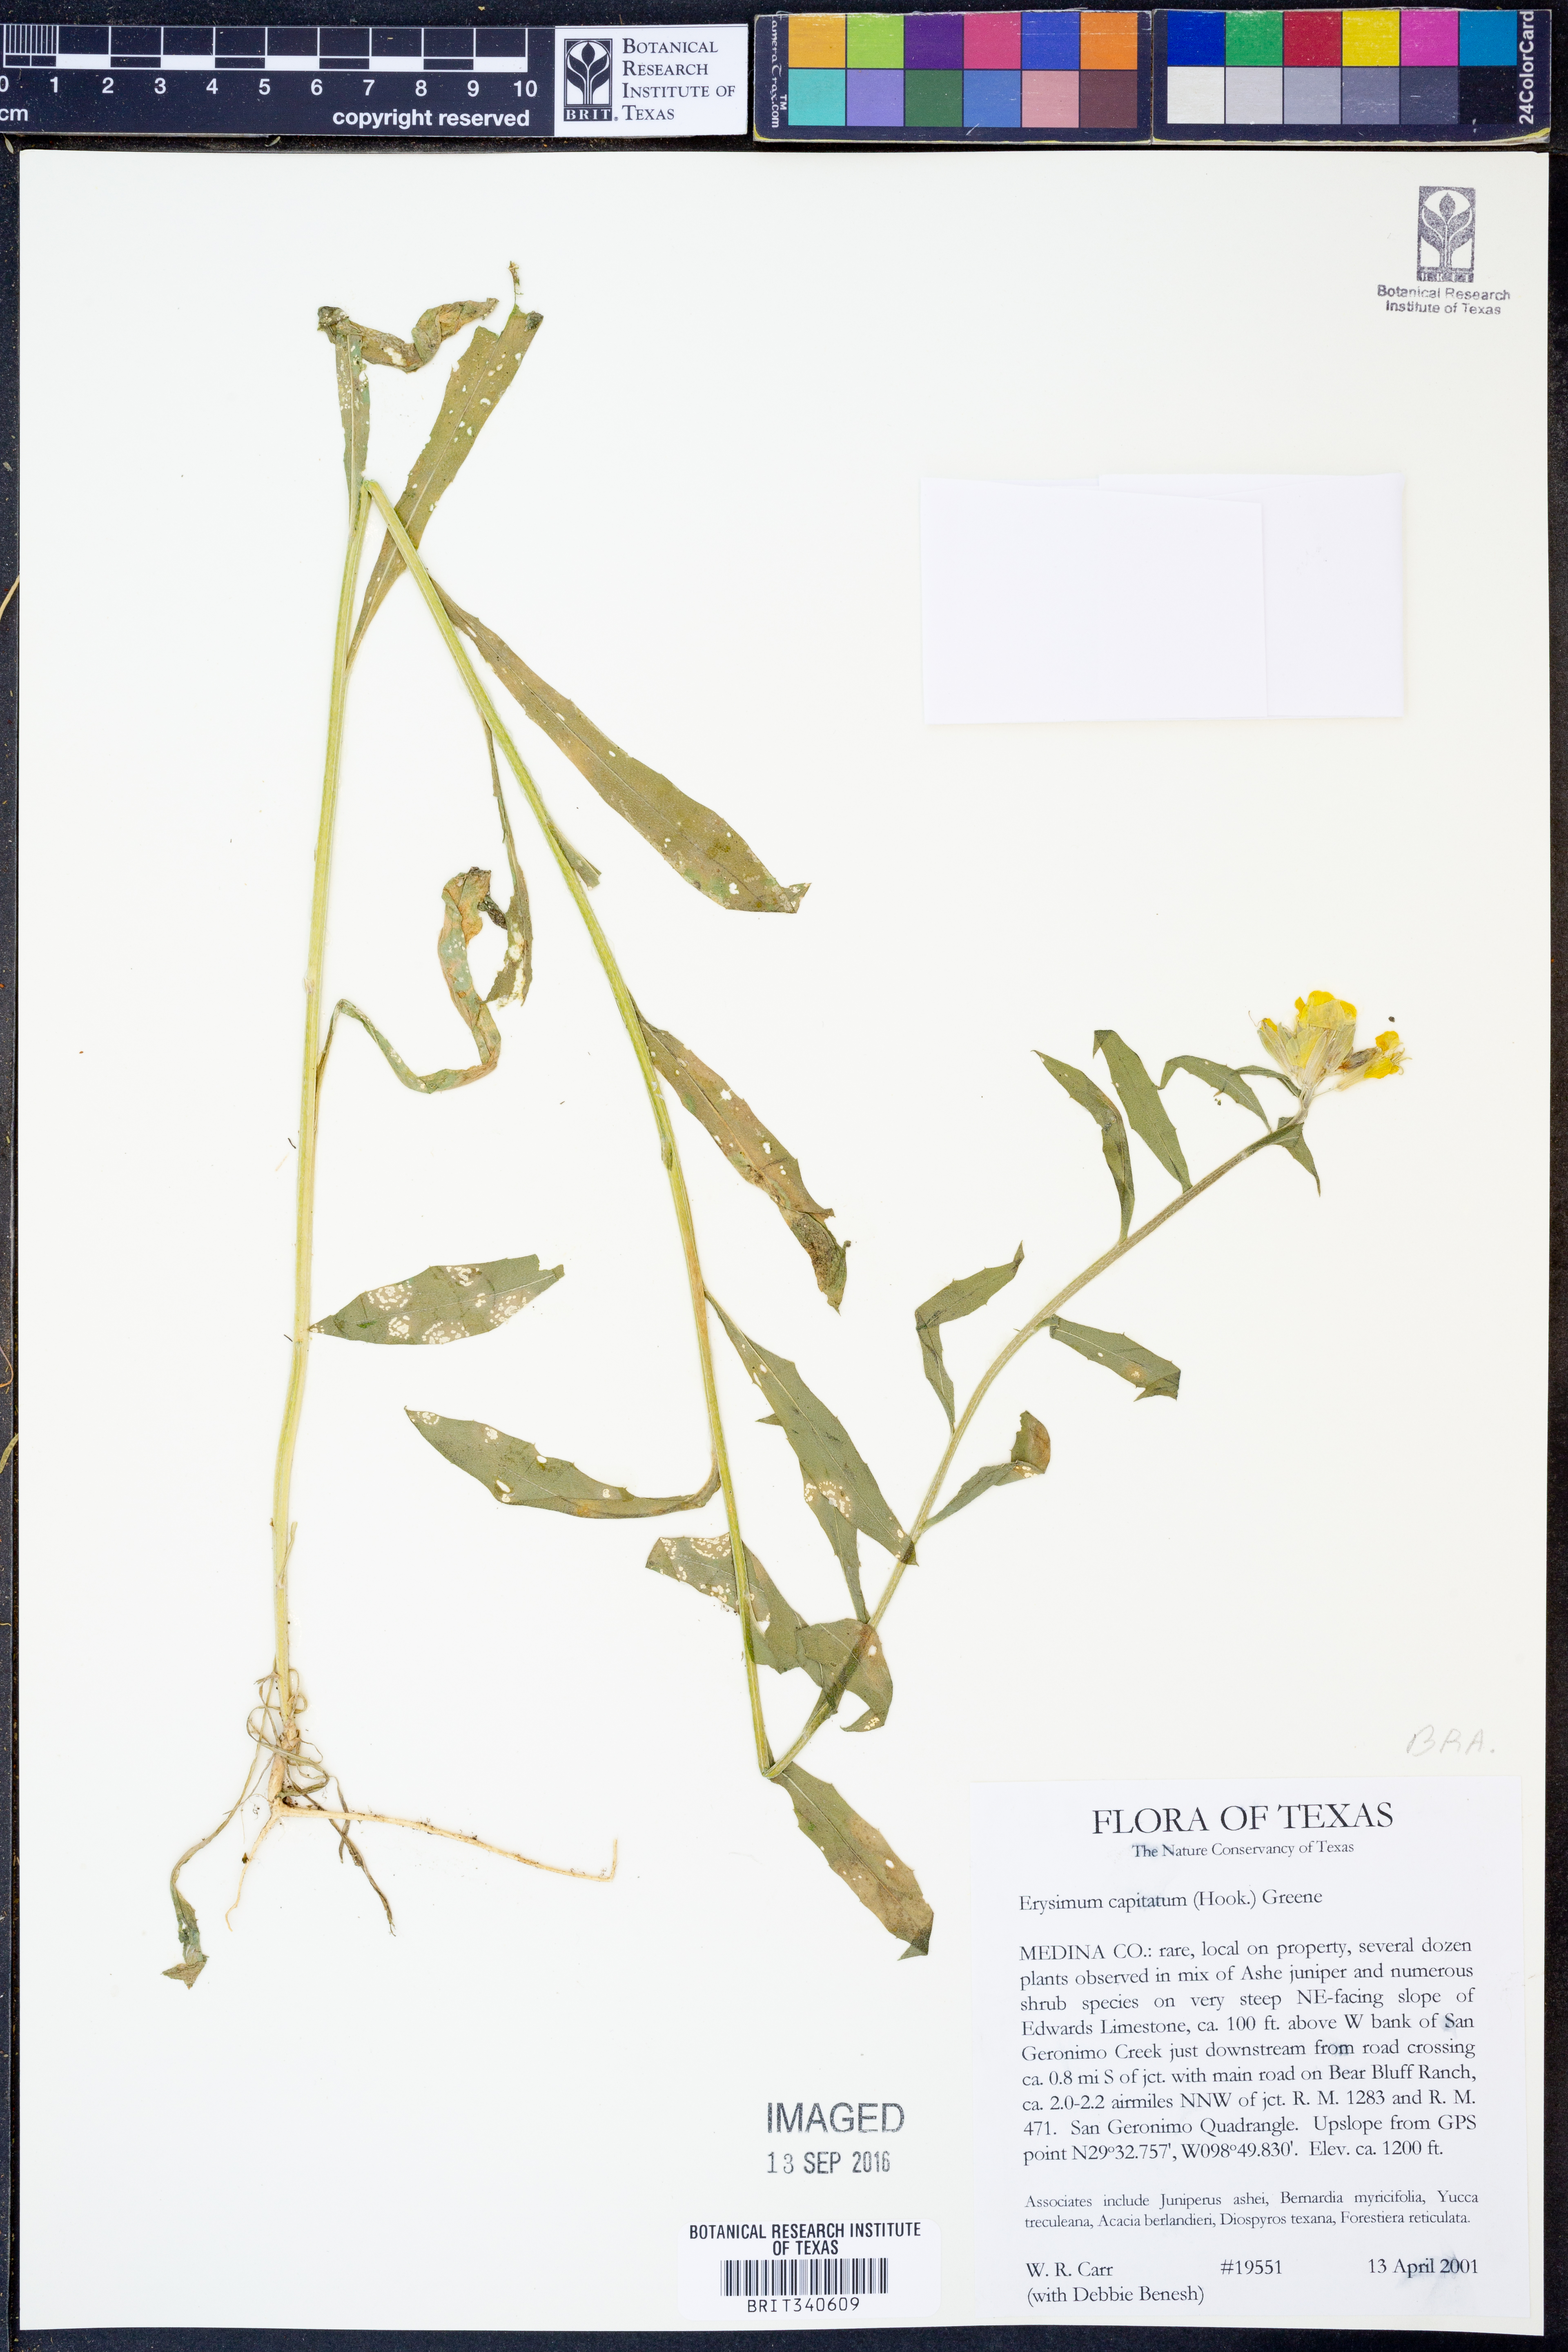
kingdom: Plantae
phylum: Tracheophyta
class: Magnoliopsida
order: Brassicales
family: Brassicaceae
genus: Erysimum
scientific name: Erysimum capitatum
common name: Western wallflower
